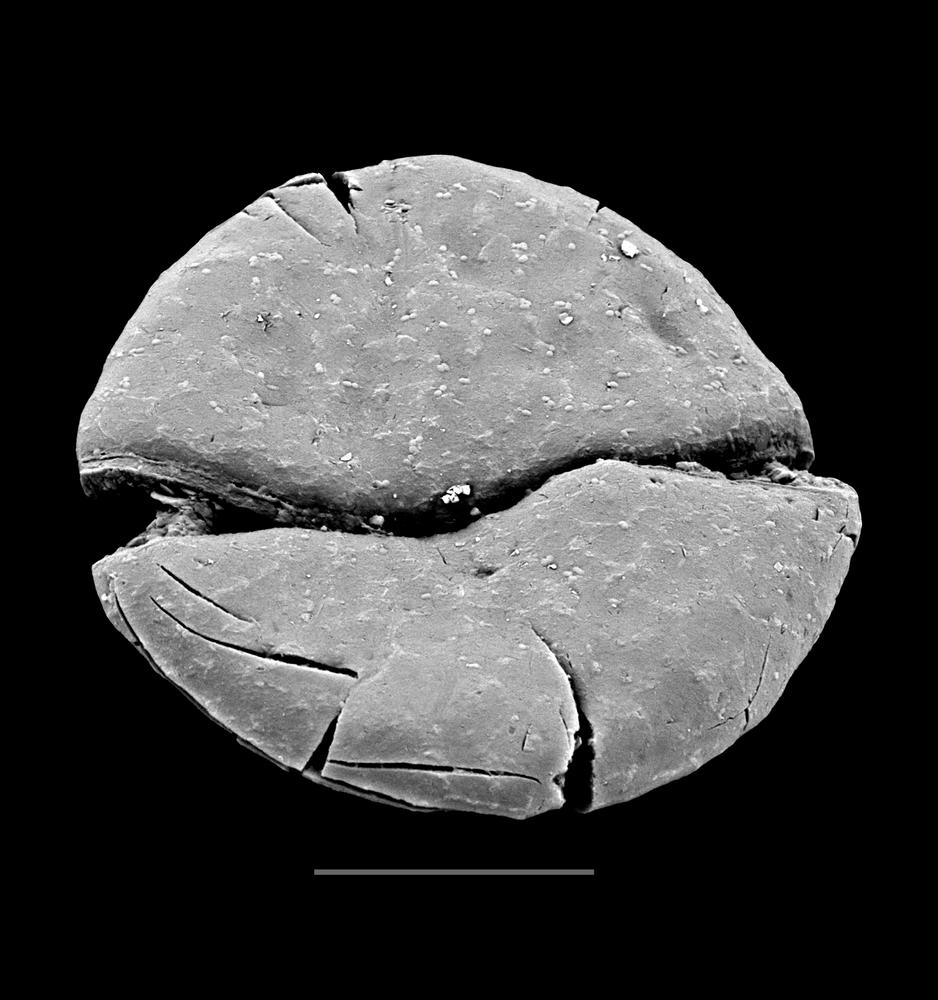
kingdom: Animalia
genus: Vikisphaera
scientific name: Vikisphaera
